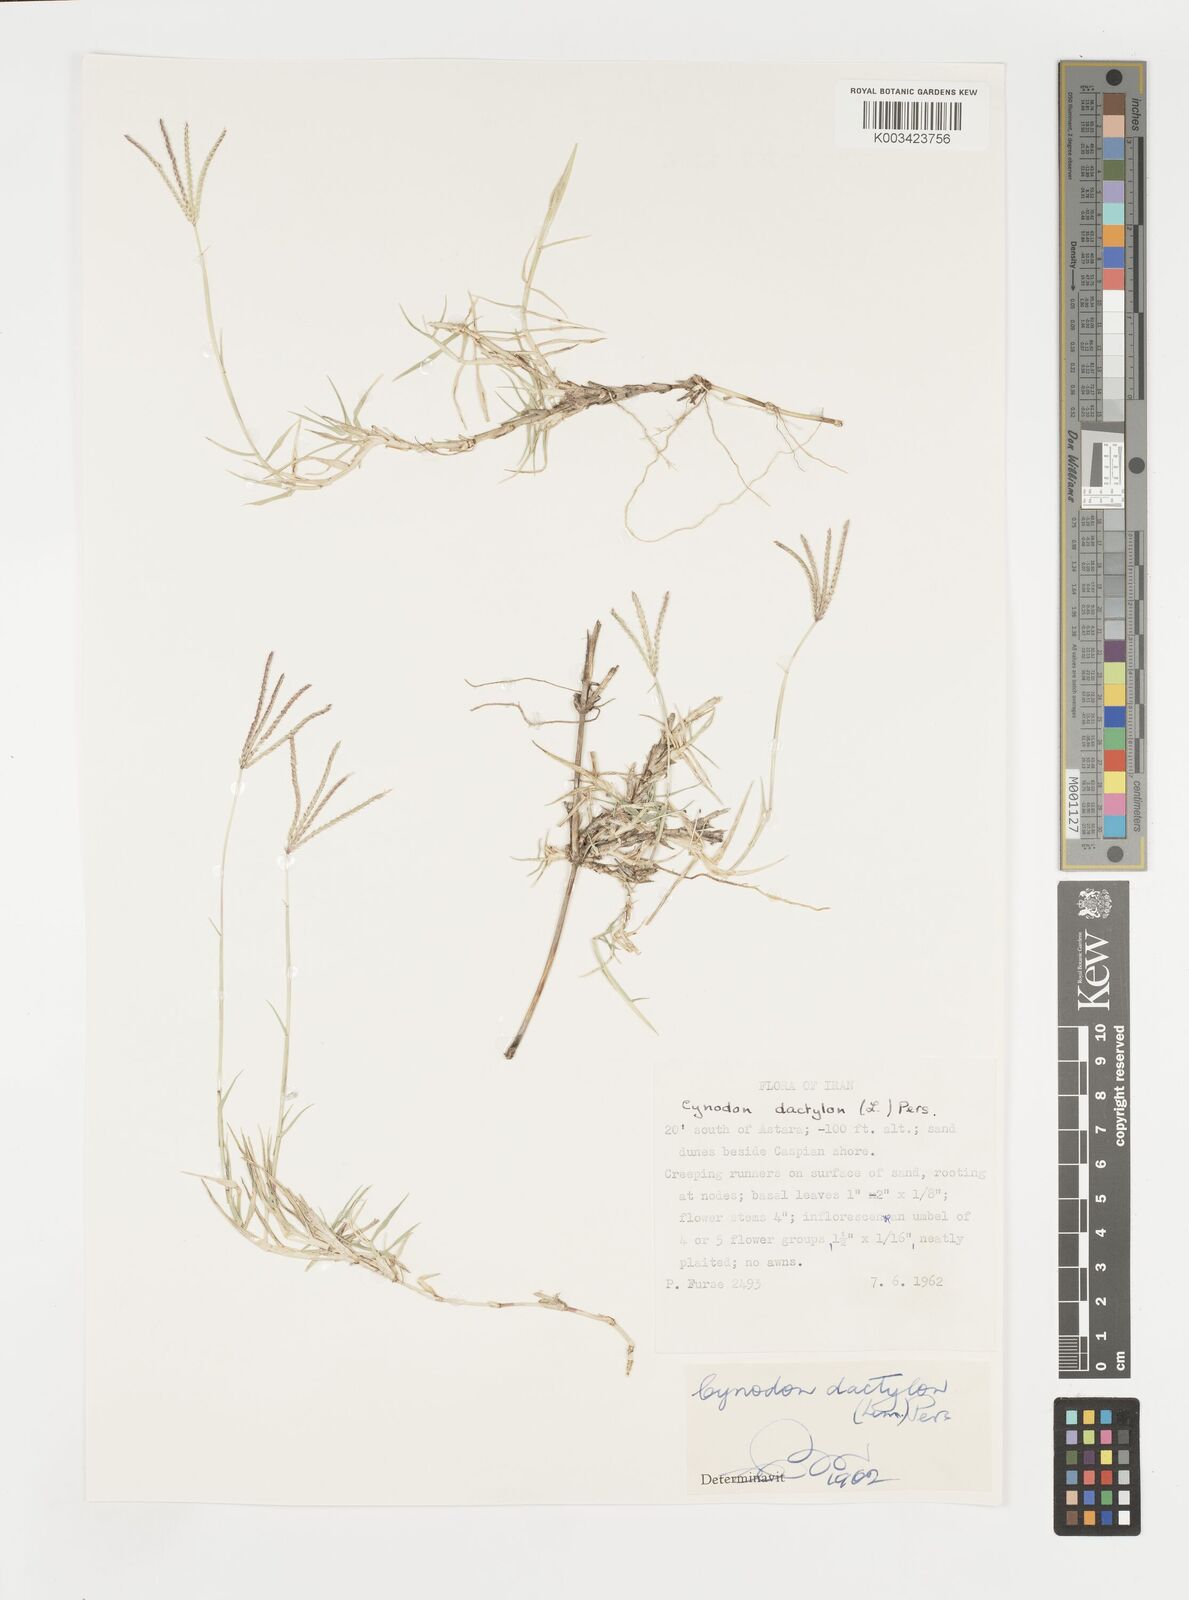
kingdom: Plantae
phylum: Tracheophyta
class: Liliopsida
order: Poales
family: Poaceae
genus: Cynodon
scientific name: Cynodon dactylon
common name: Bermuda grass
